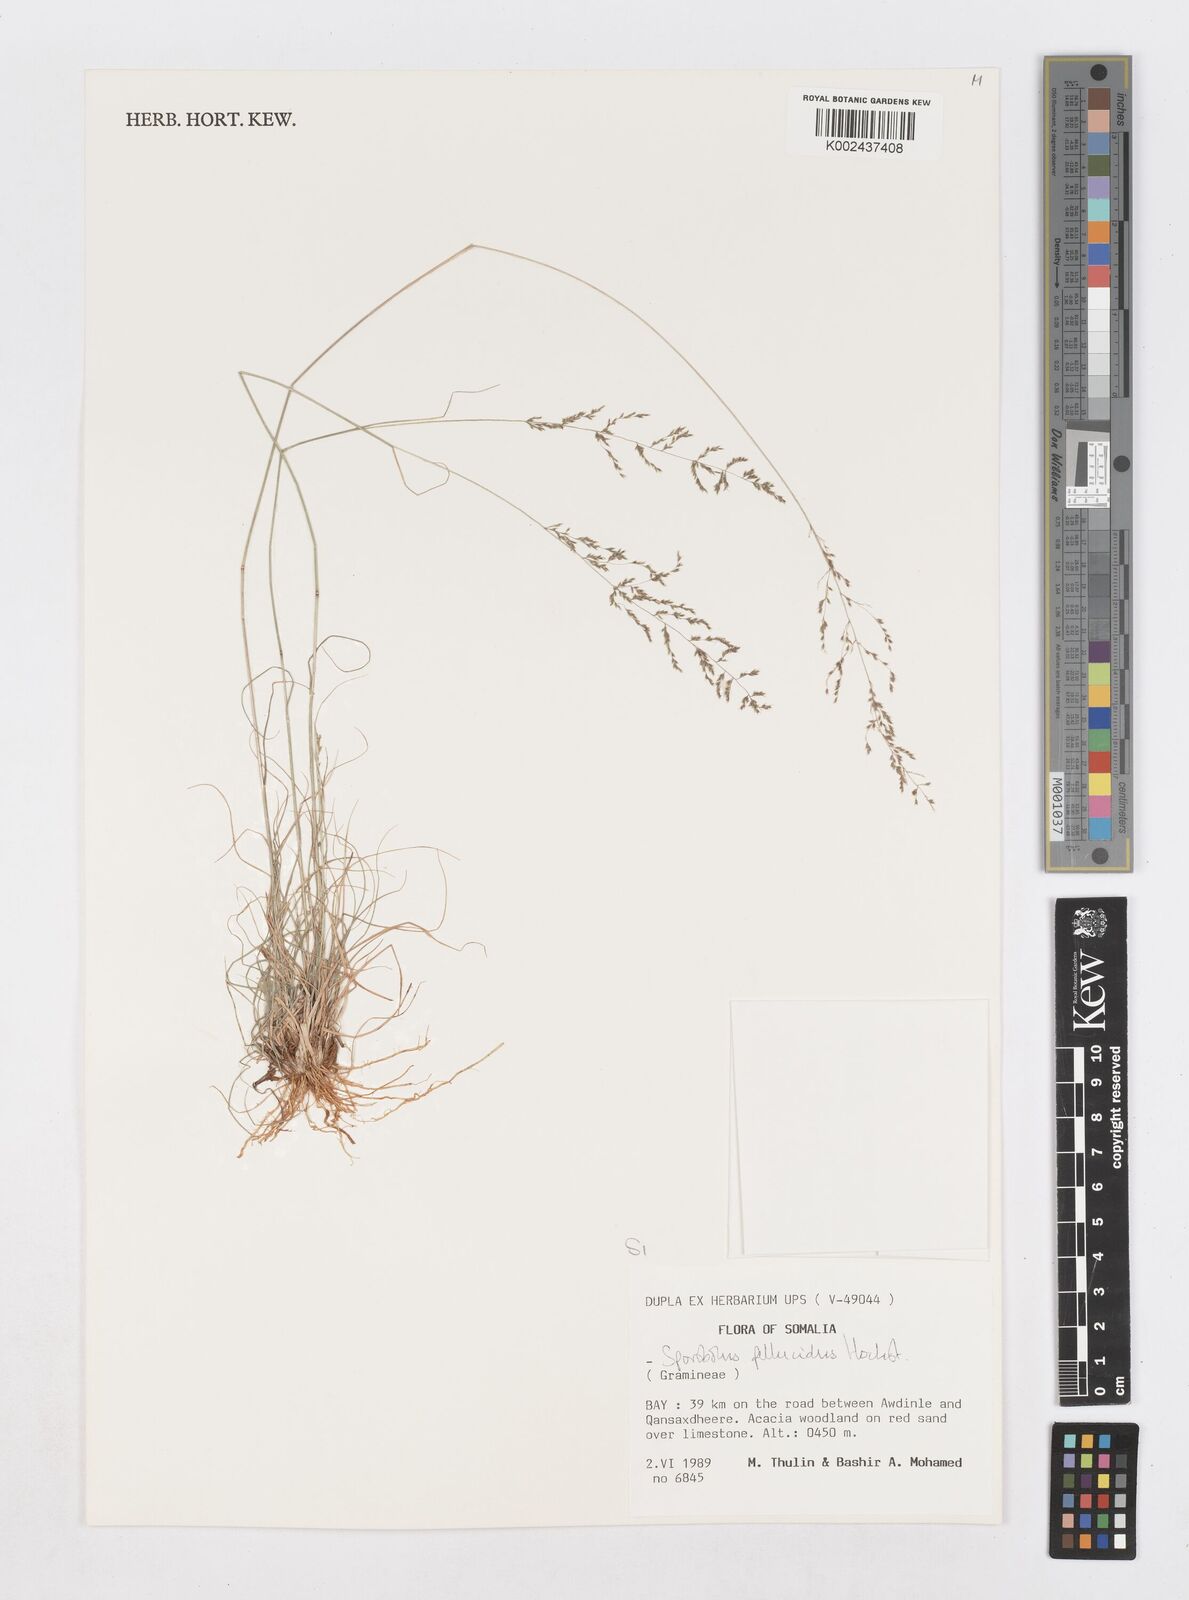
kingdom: Plantae
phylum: Tracheophyta
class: Liliopsida
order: Poales
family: Poaceae
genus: Sporobolus
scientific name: Sporobolus pellucidus
